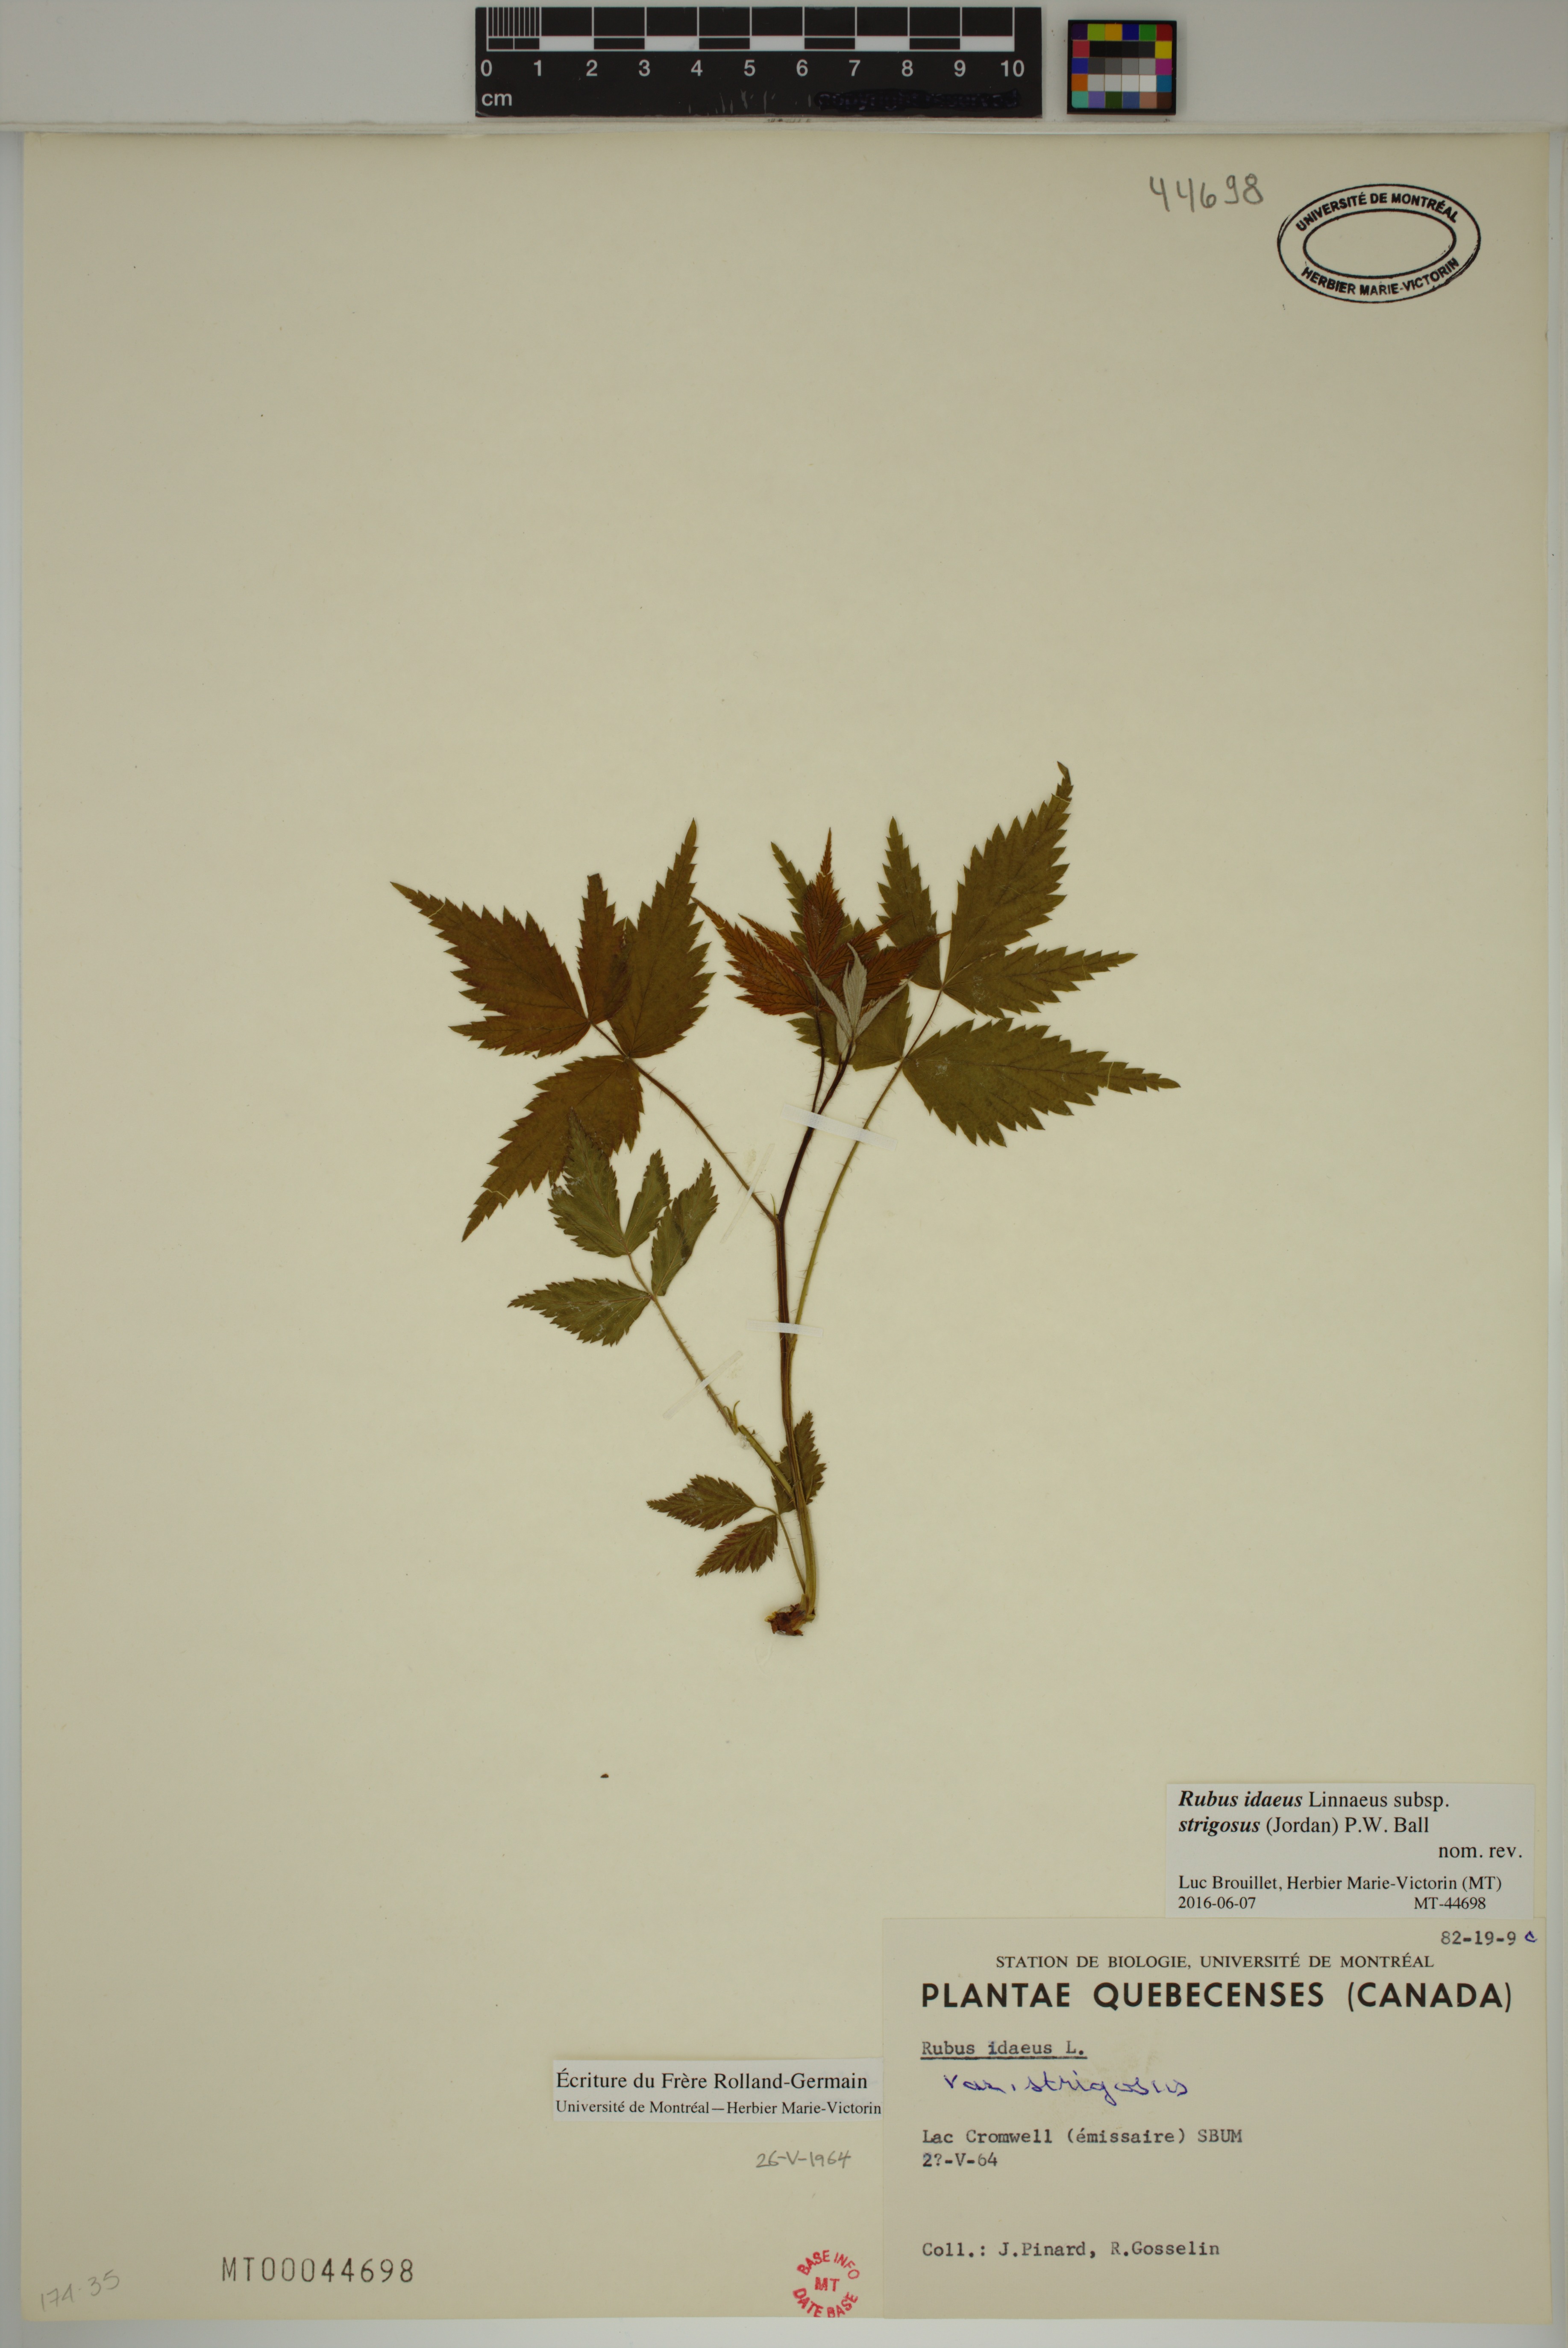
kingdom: Plantae
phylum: Tracheophyta
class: Magnoliopsida
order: Rosales
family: Rosaceae
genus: Rubus
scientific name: Rubus sachalinensis
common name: Red raspberry
